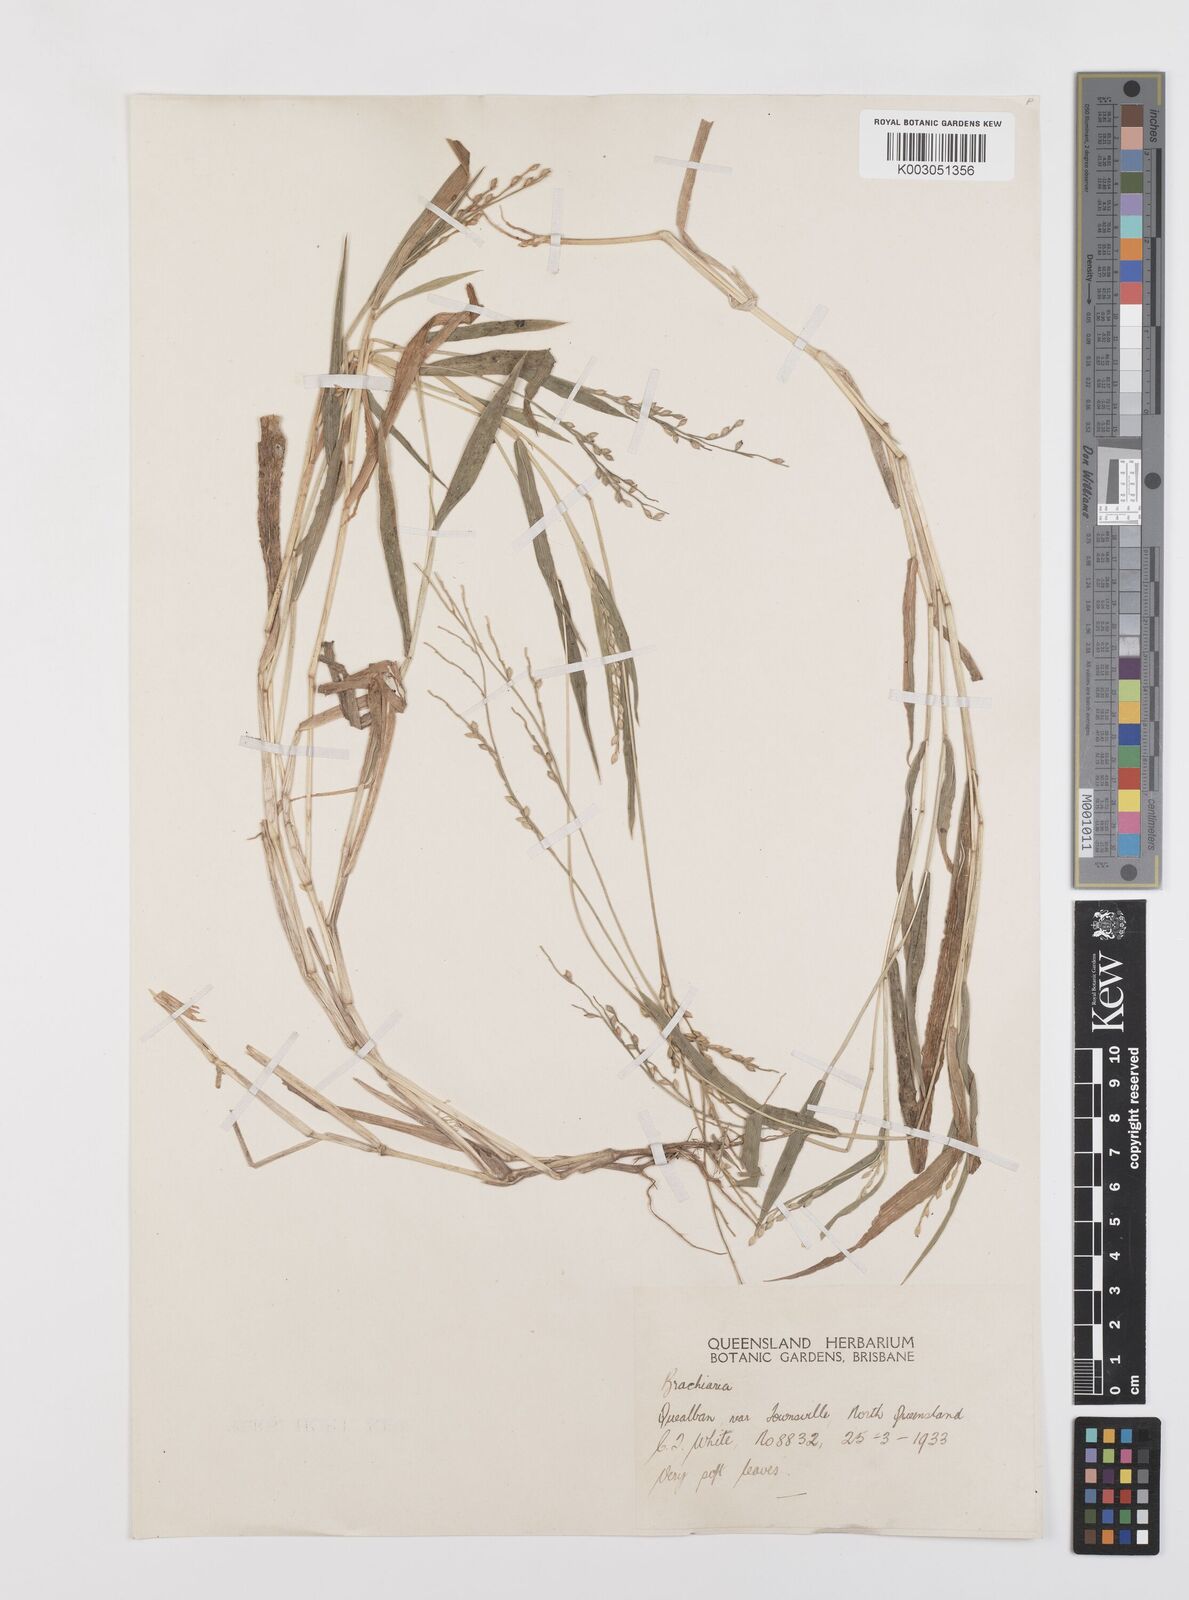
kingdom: Plantae
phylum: Tracheophyta
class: Liliopsida
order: Poales
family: Poaceae
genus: Urochloa
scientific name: Urochloa whiteana
